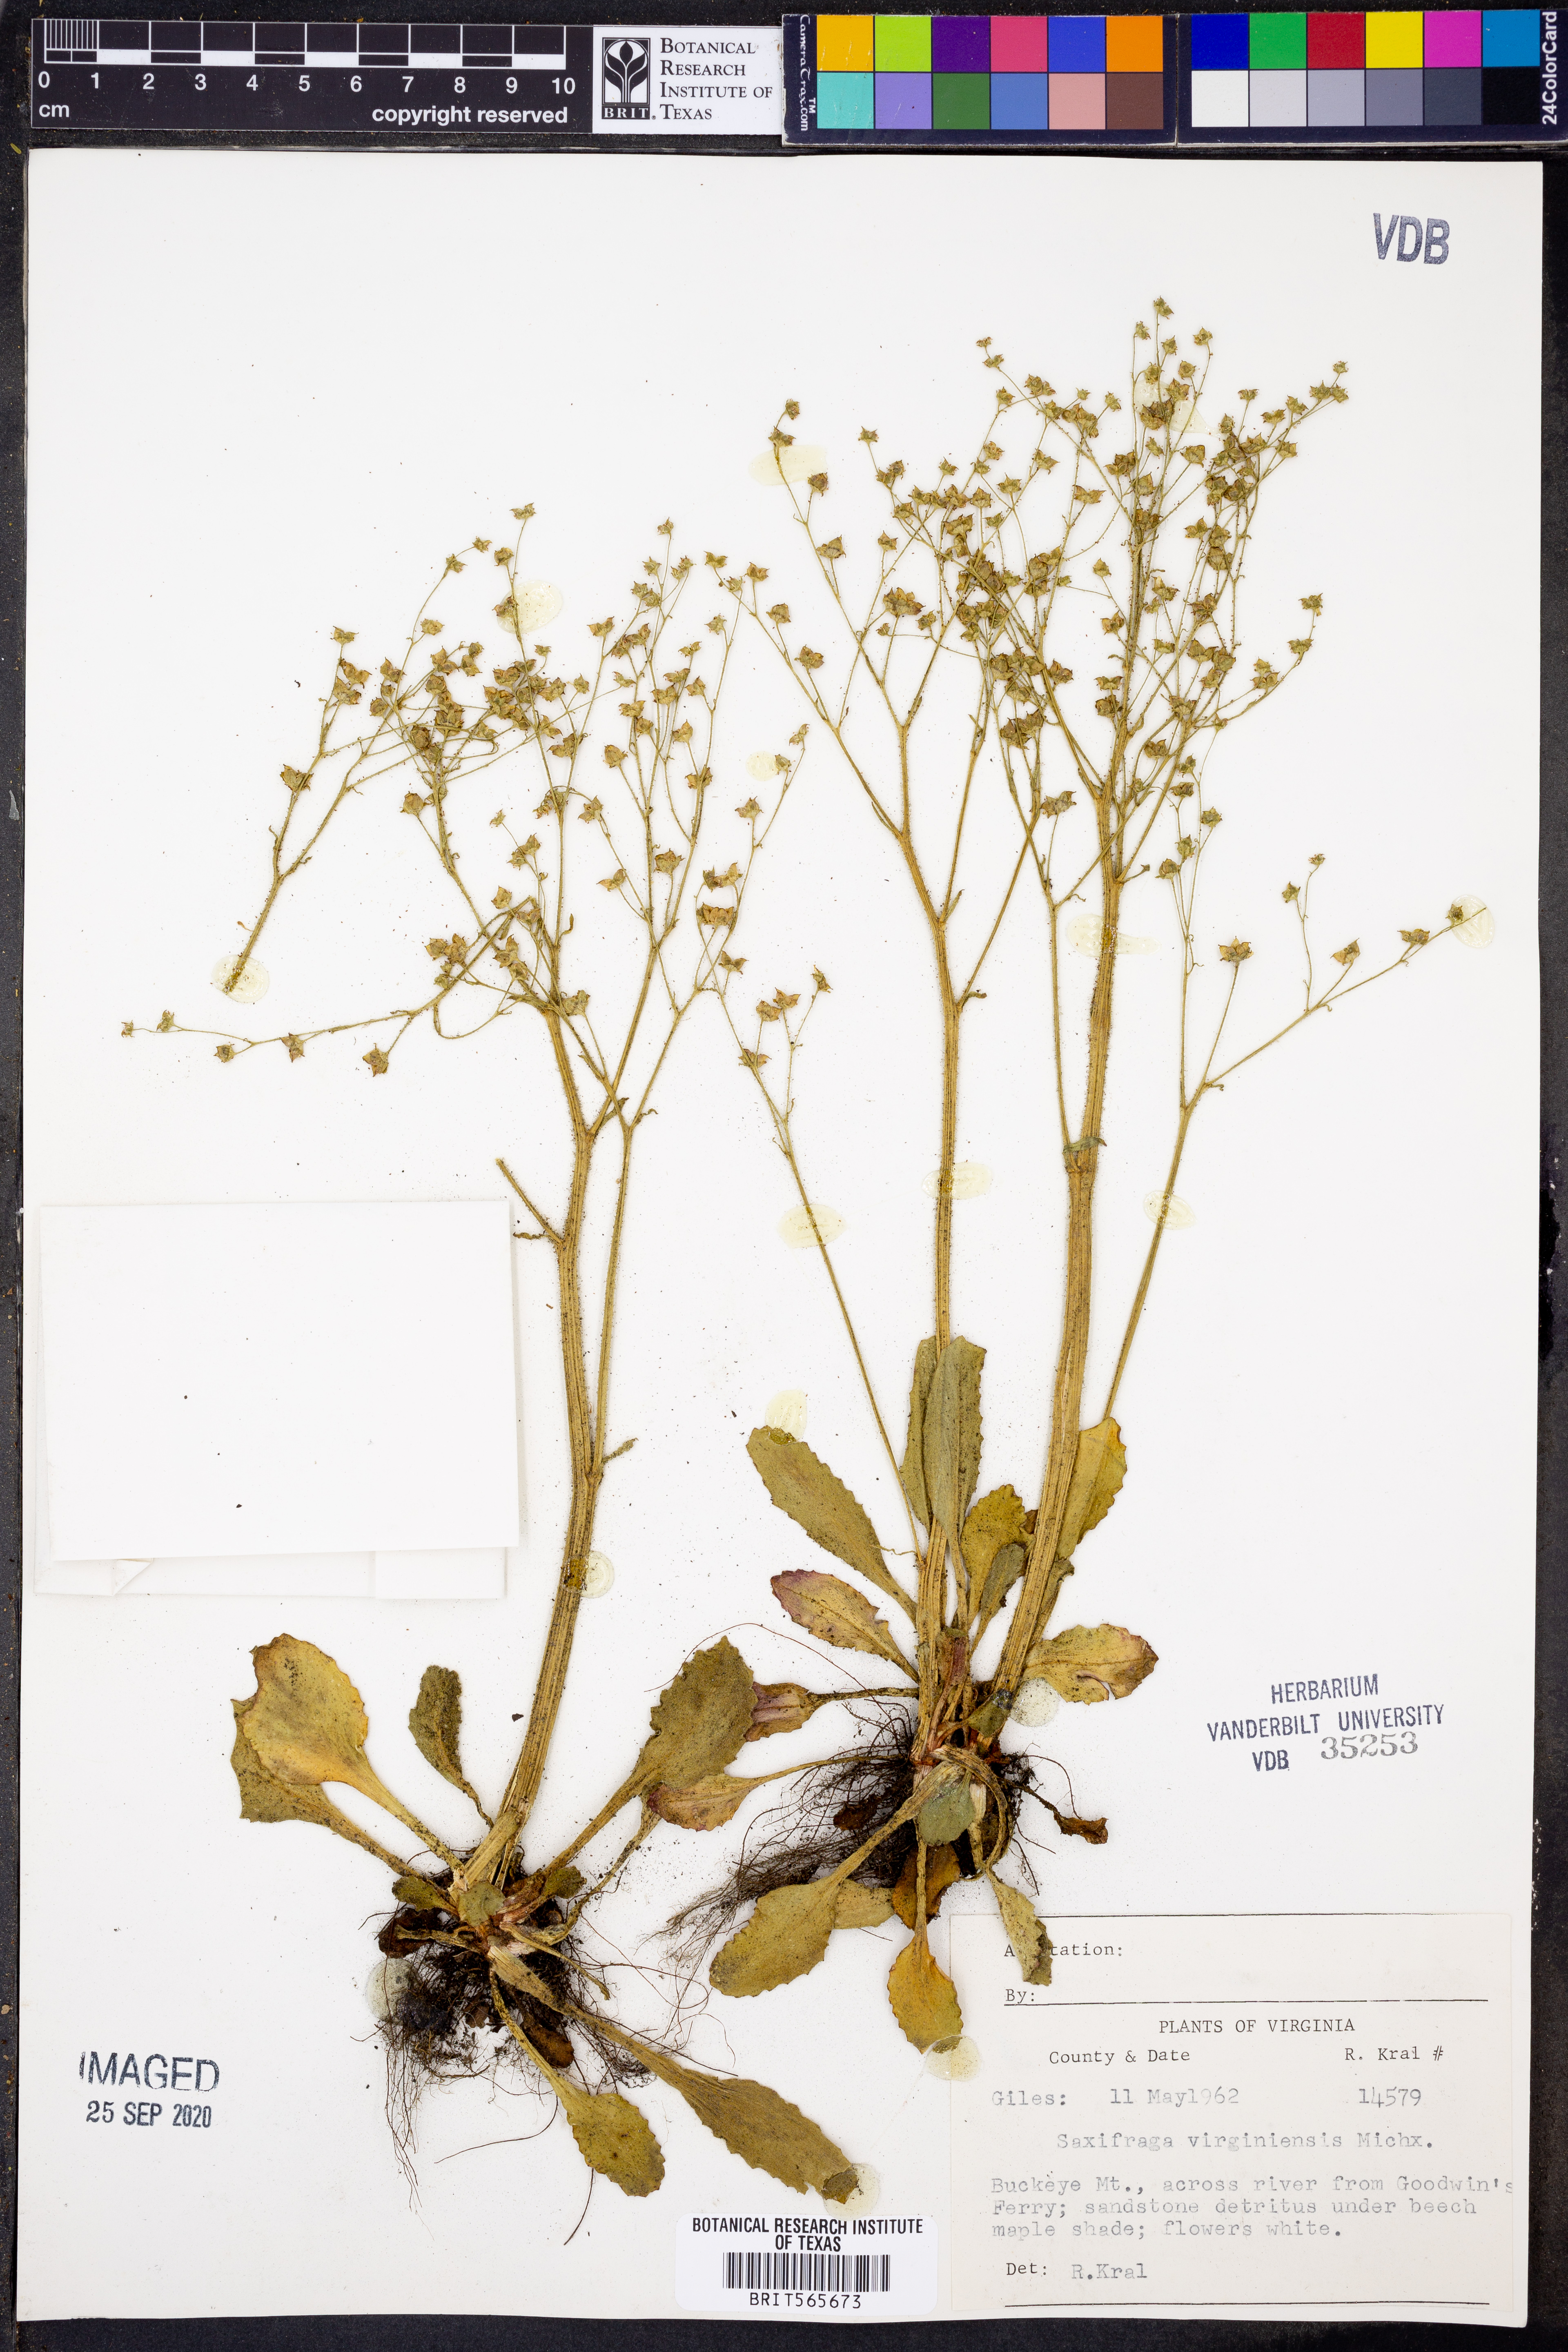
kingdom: Plantae
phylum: Tracheophyta
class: Magnoliopsida
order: Saxifragales
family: Saxifragaceae
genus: Micranthes
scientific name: Micranthes virginiensis
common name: Early saxifrage
